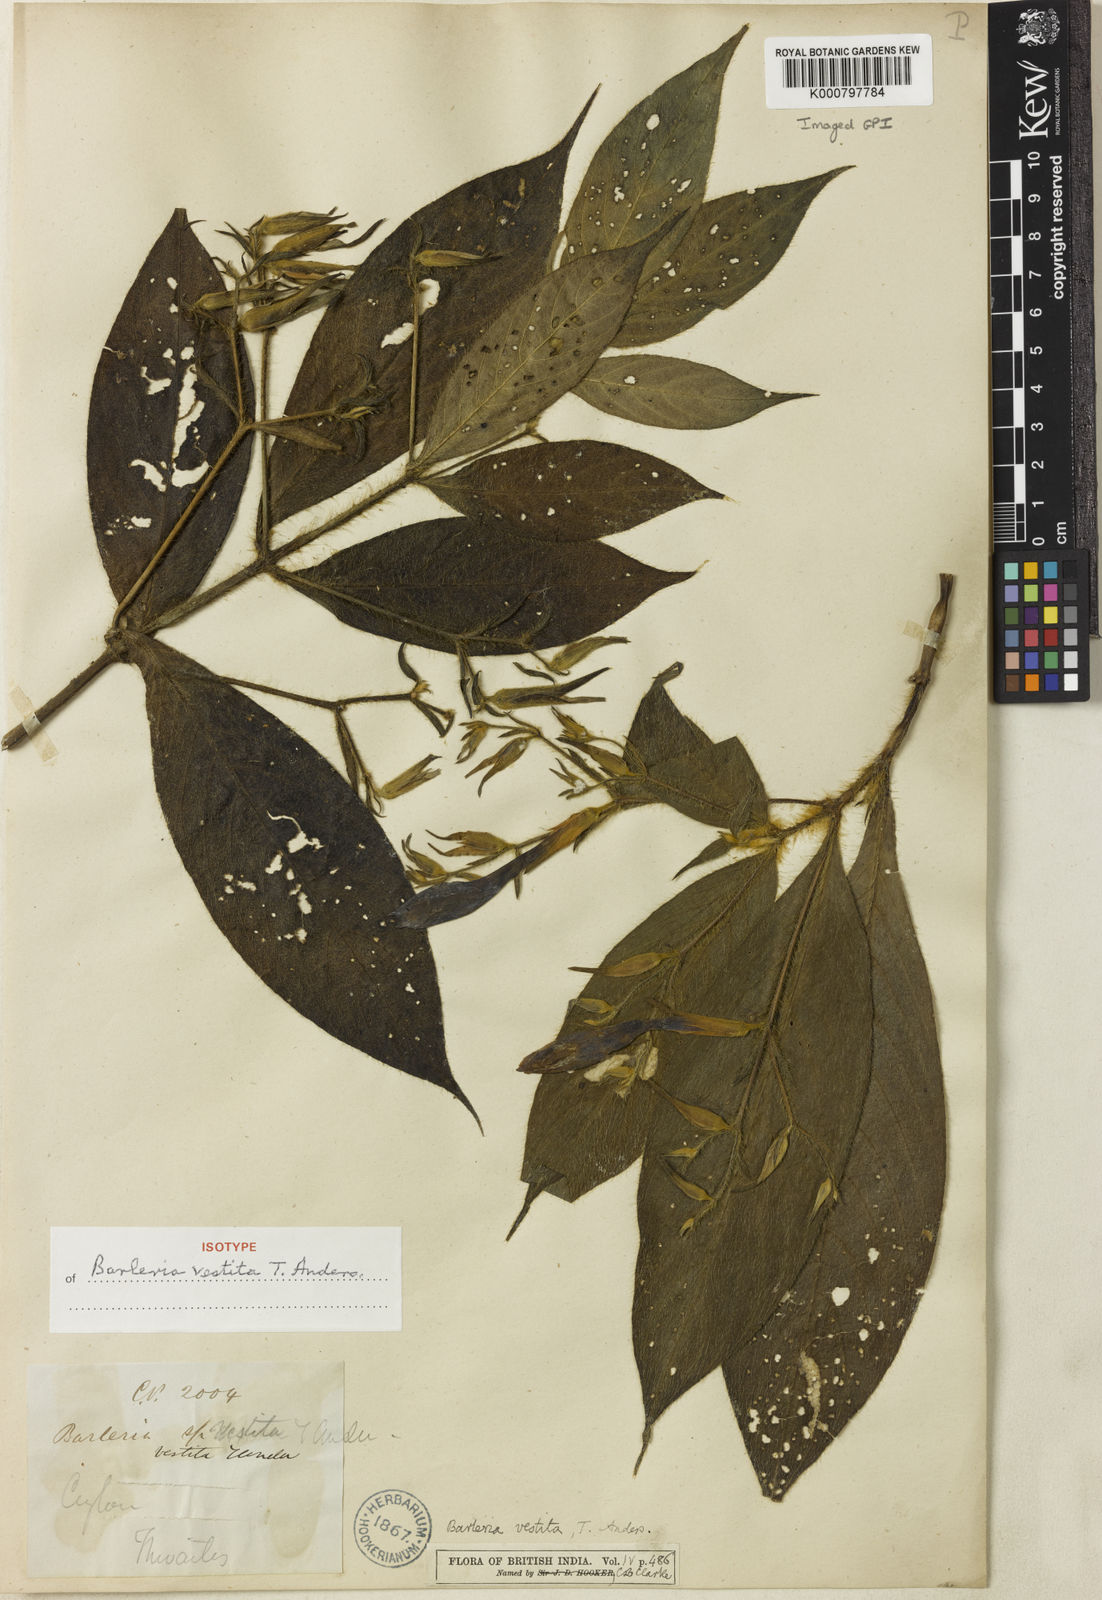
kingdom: Plantae
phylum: Tracheophyta
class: Magnoliopsida
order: Lamiales
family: Acanthaceae
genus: Barleria
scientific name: Barleria vestita
